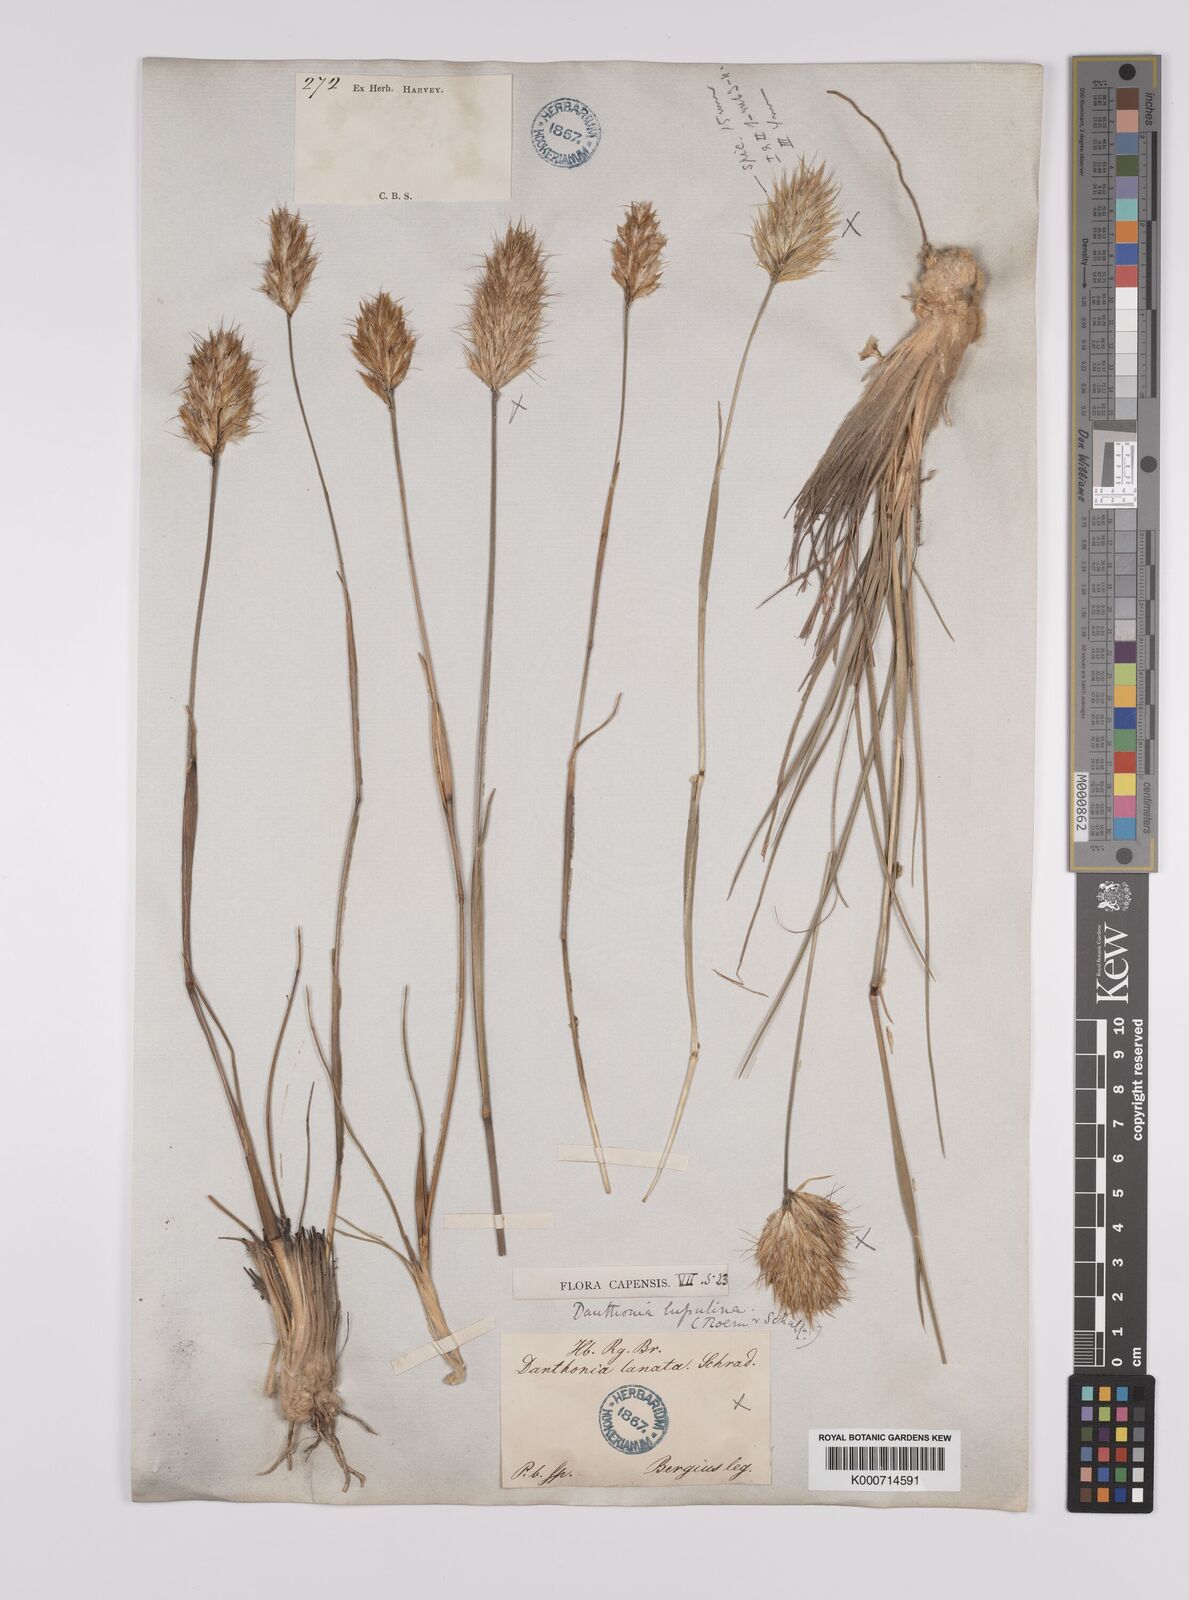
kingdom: Plantae
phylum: Tracheophyta
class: Liliopsida
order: Poales
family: Poaceae
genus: Rytidosperma
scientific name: Rytidosperma
